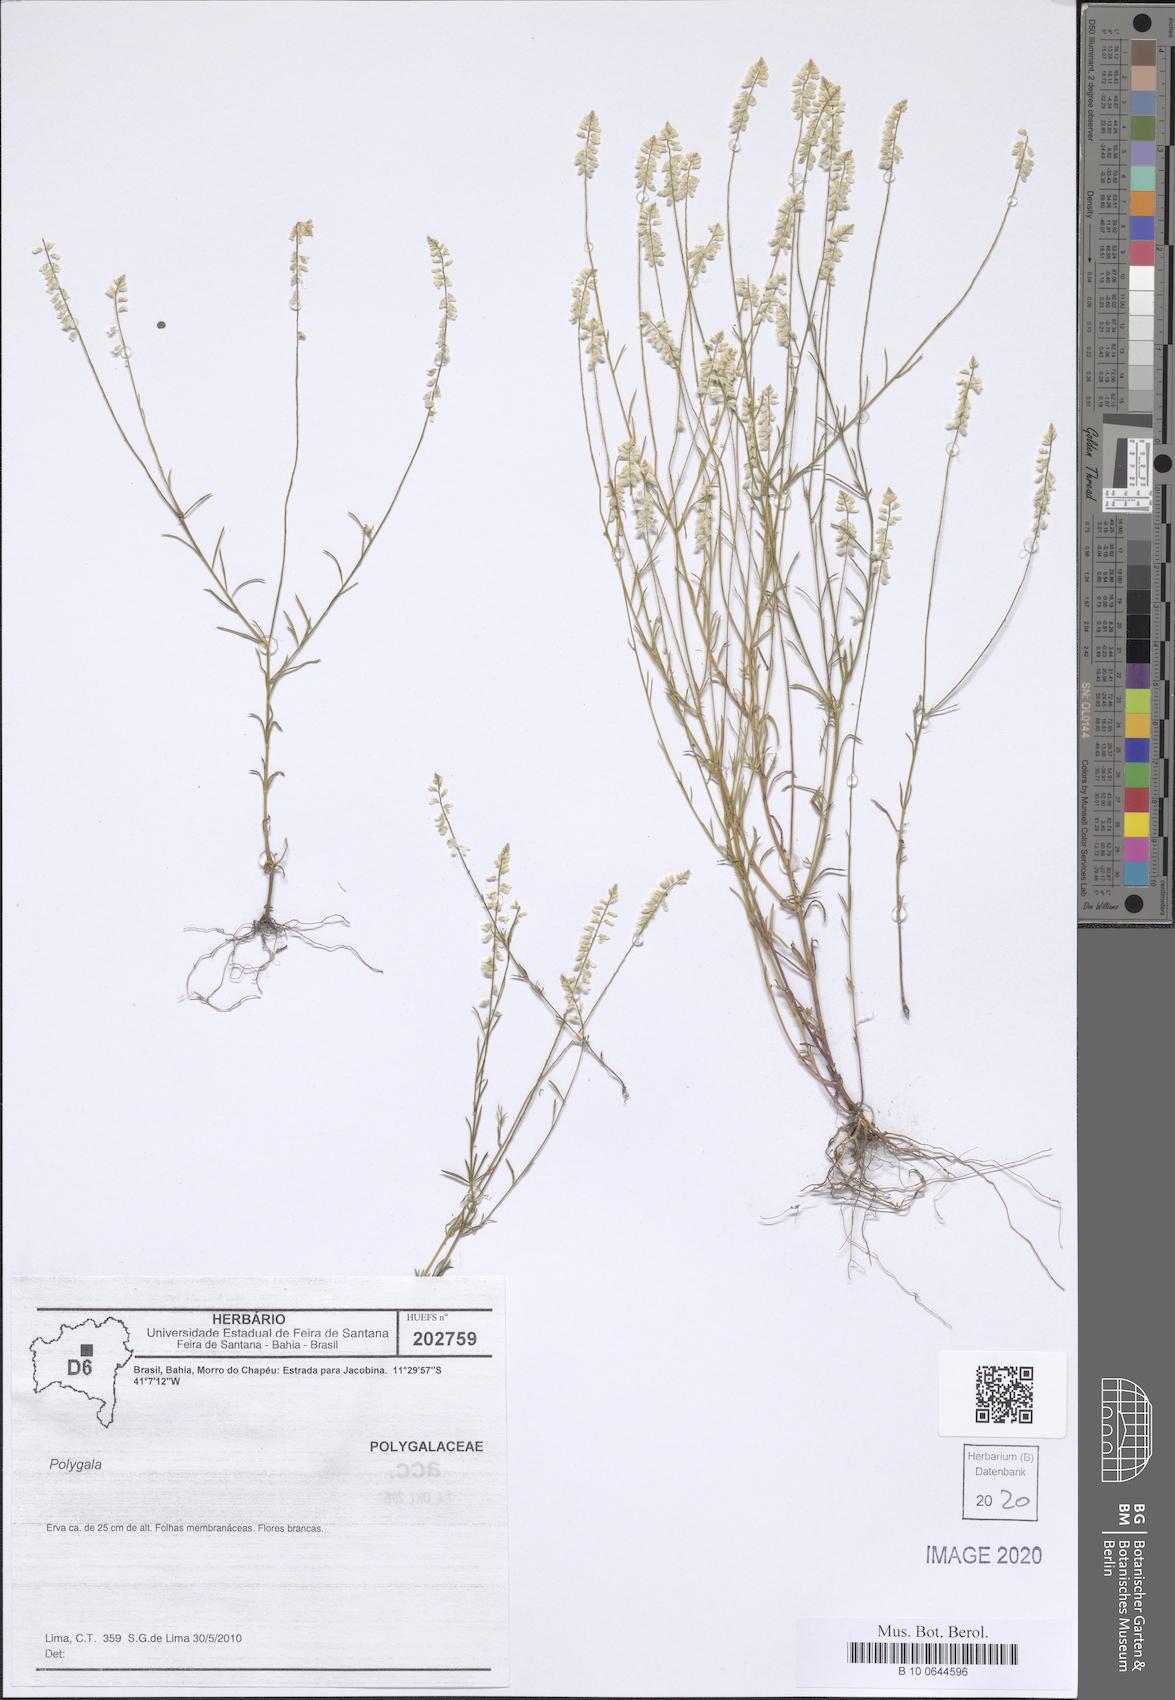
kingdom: Plantae
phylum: Tracheophyta
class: Magnoliopsida
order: Fabales
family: Polygalaceae
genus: Polygala
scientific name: Polygala
